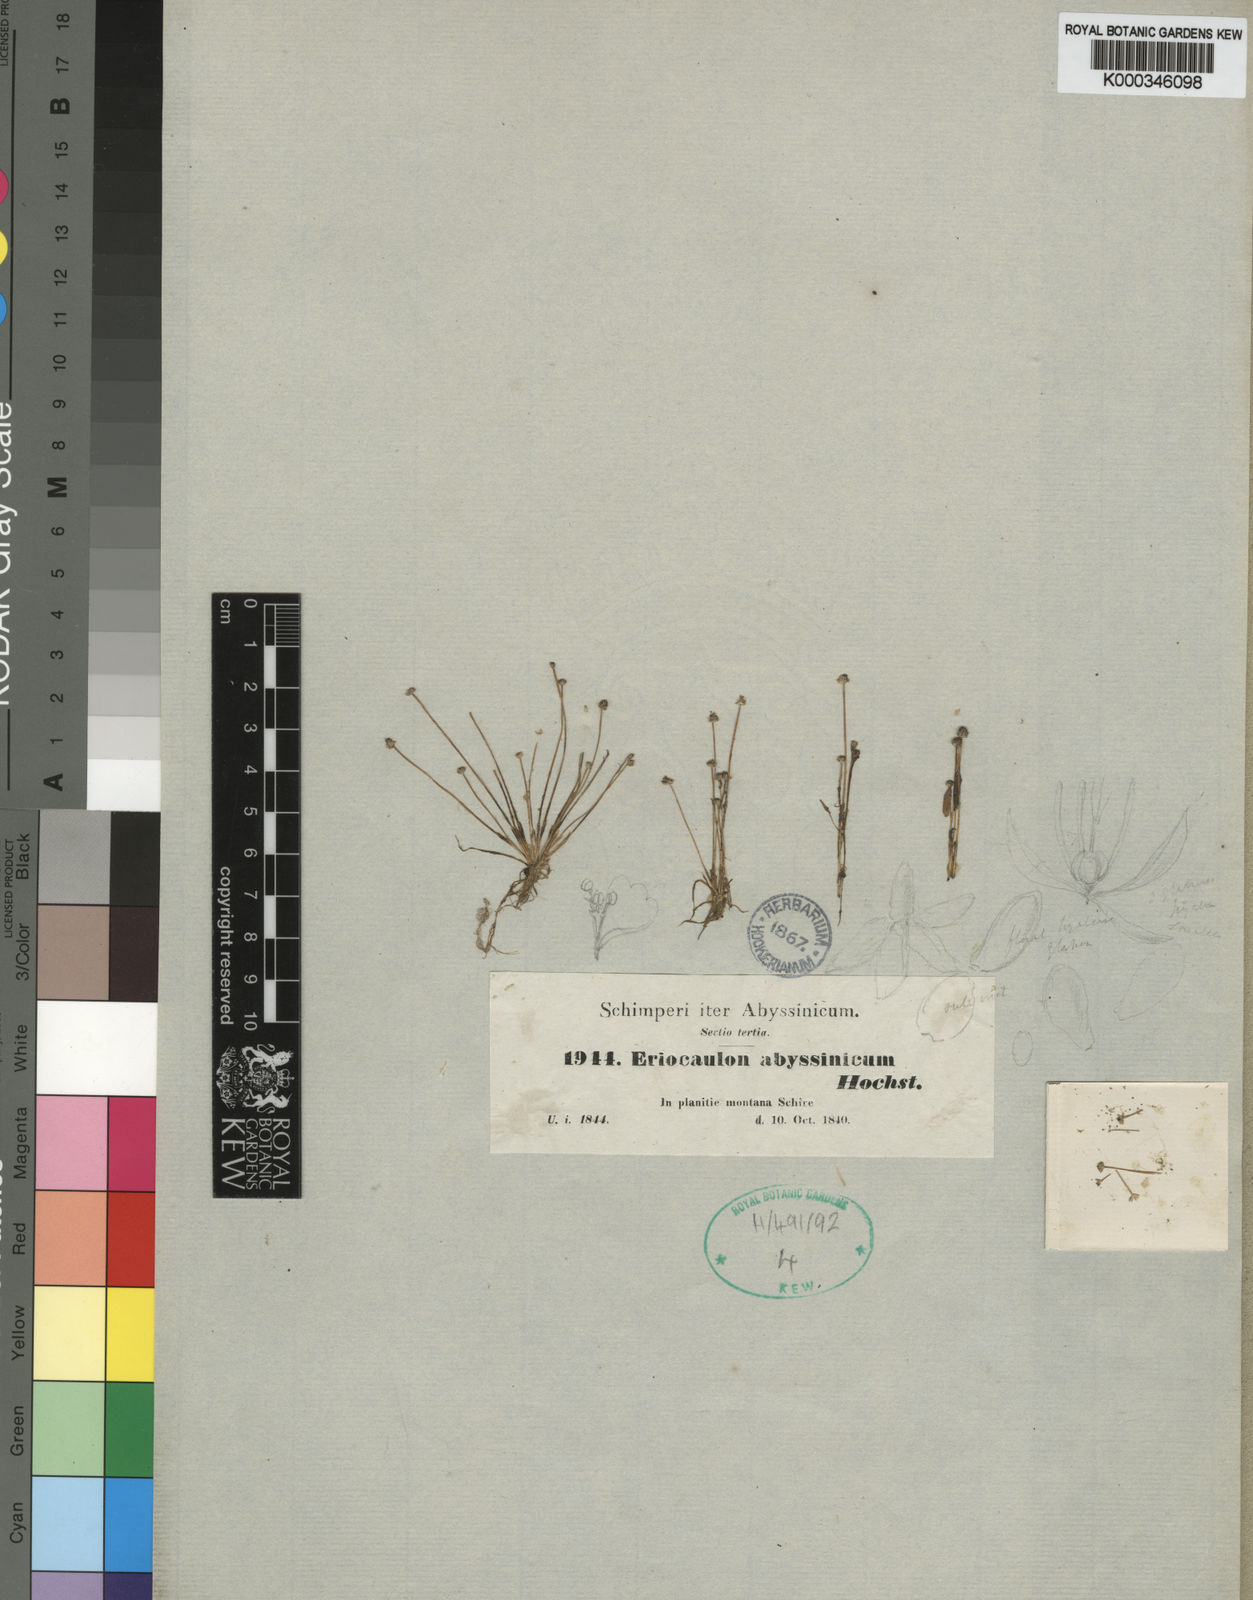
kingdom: Plantae
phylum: Tracheophyta
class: Liliopsida
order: Poales
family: Eriocaulaceae
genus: Eriocaulon
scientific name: Eriocaulon abyssinicum
